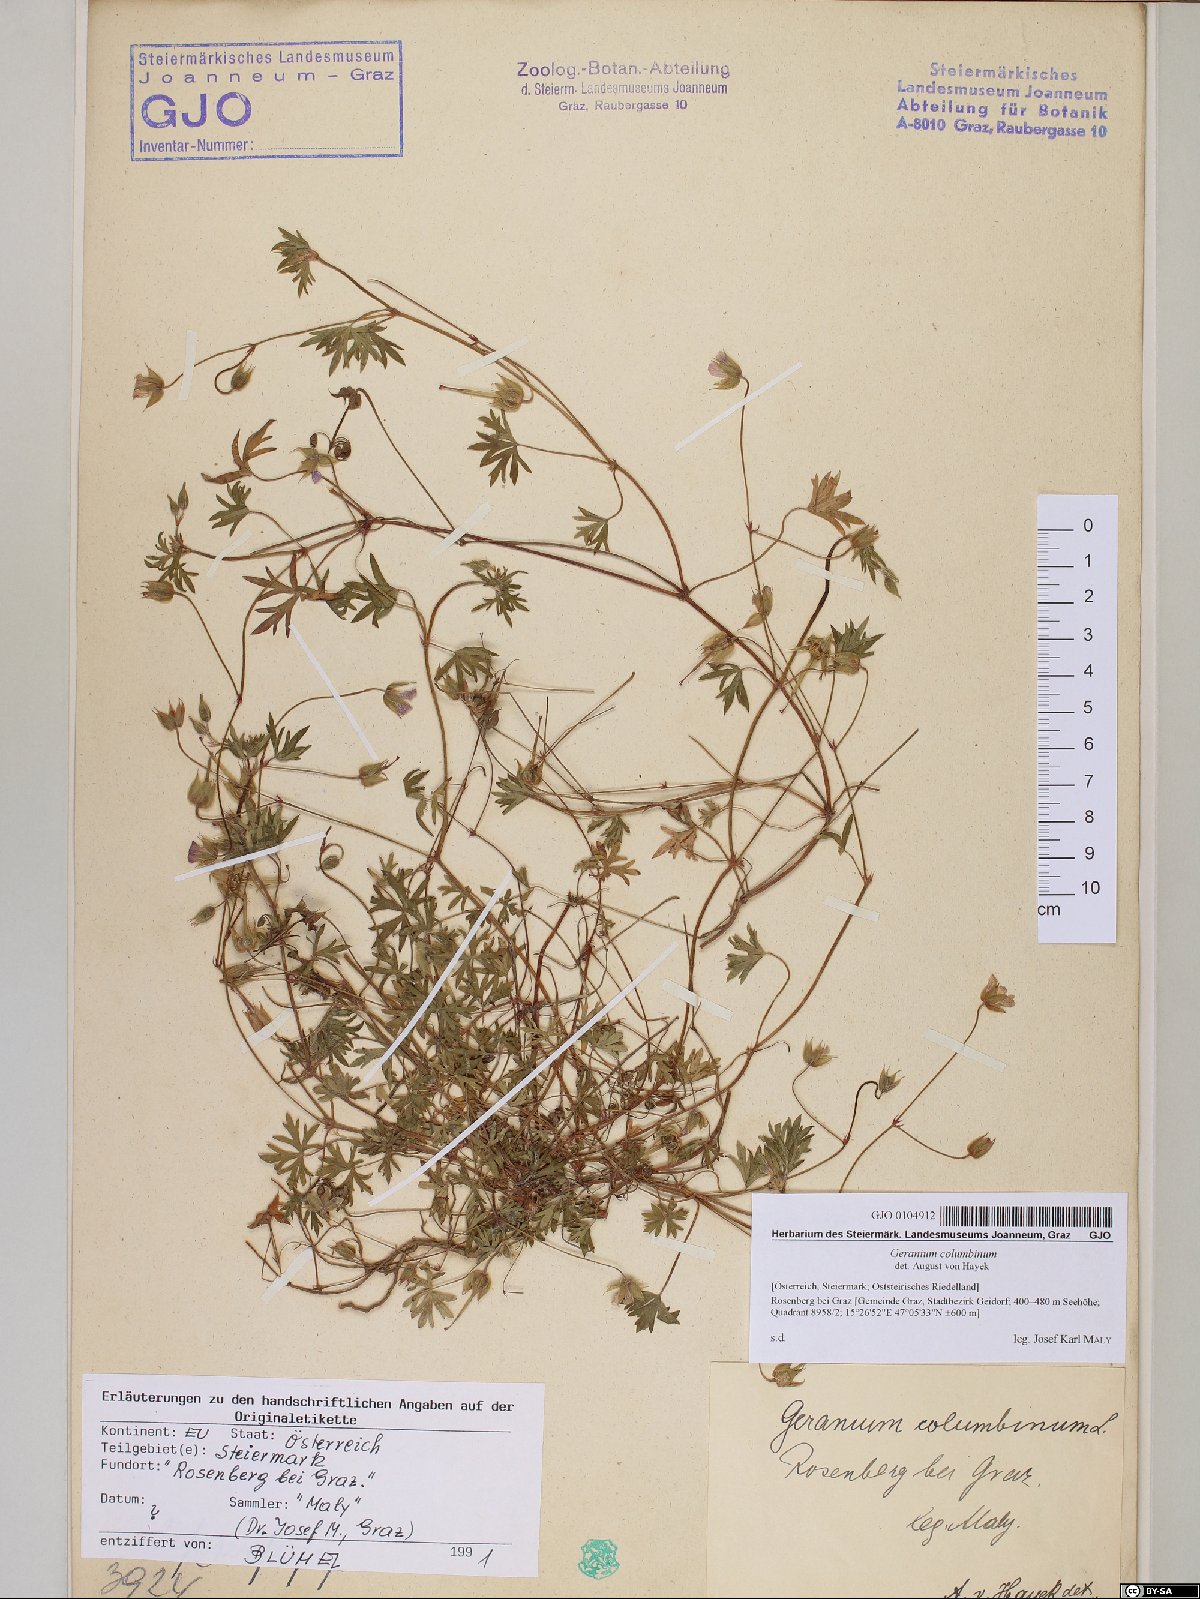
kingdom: Plantae
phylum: Tracheophyta
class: Magnoliopsida
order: Geraniales
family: Geraniaceae
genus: Geranium
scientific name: Geranium columbinum
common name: Long-stalked crane's-bill
